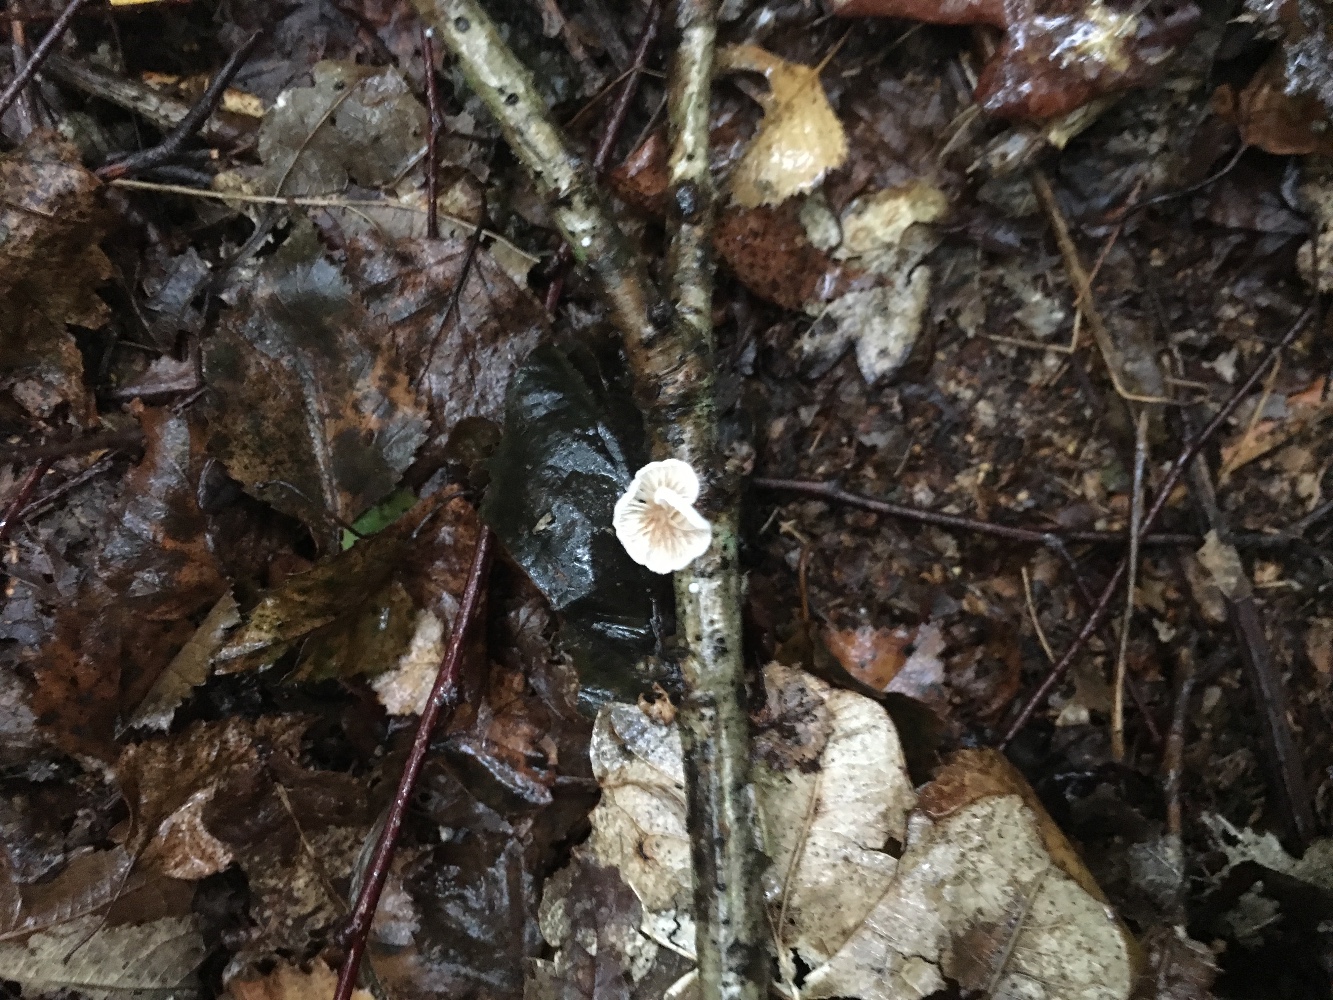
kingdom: Fungi
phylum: Basidiomycota
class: Agaricomycetes
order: Agaricales
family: Crepidotaceae
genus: Crepidotus
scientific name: Crepidotus cesatii
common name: almindelig muslingesvamp
